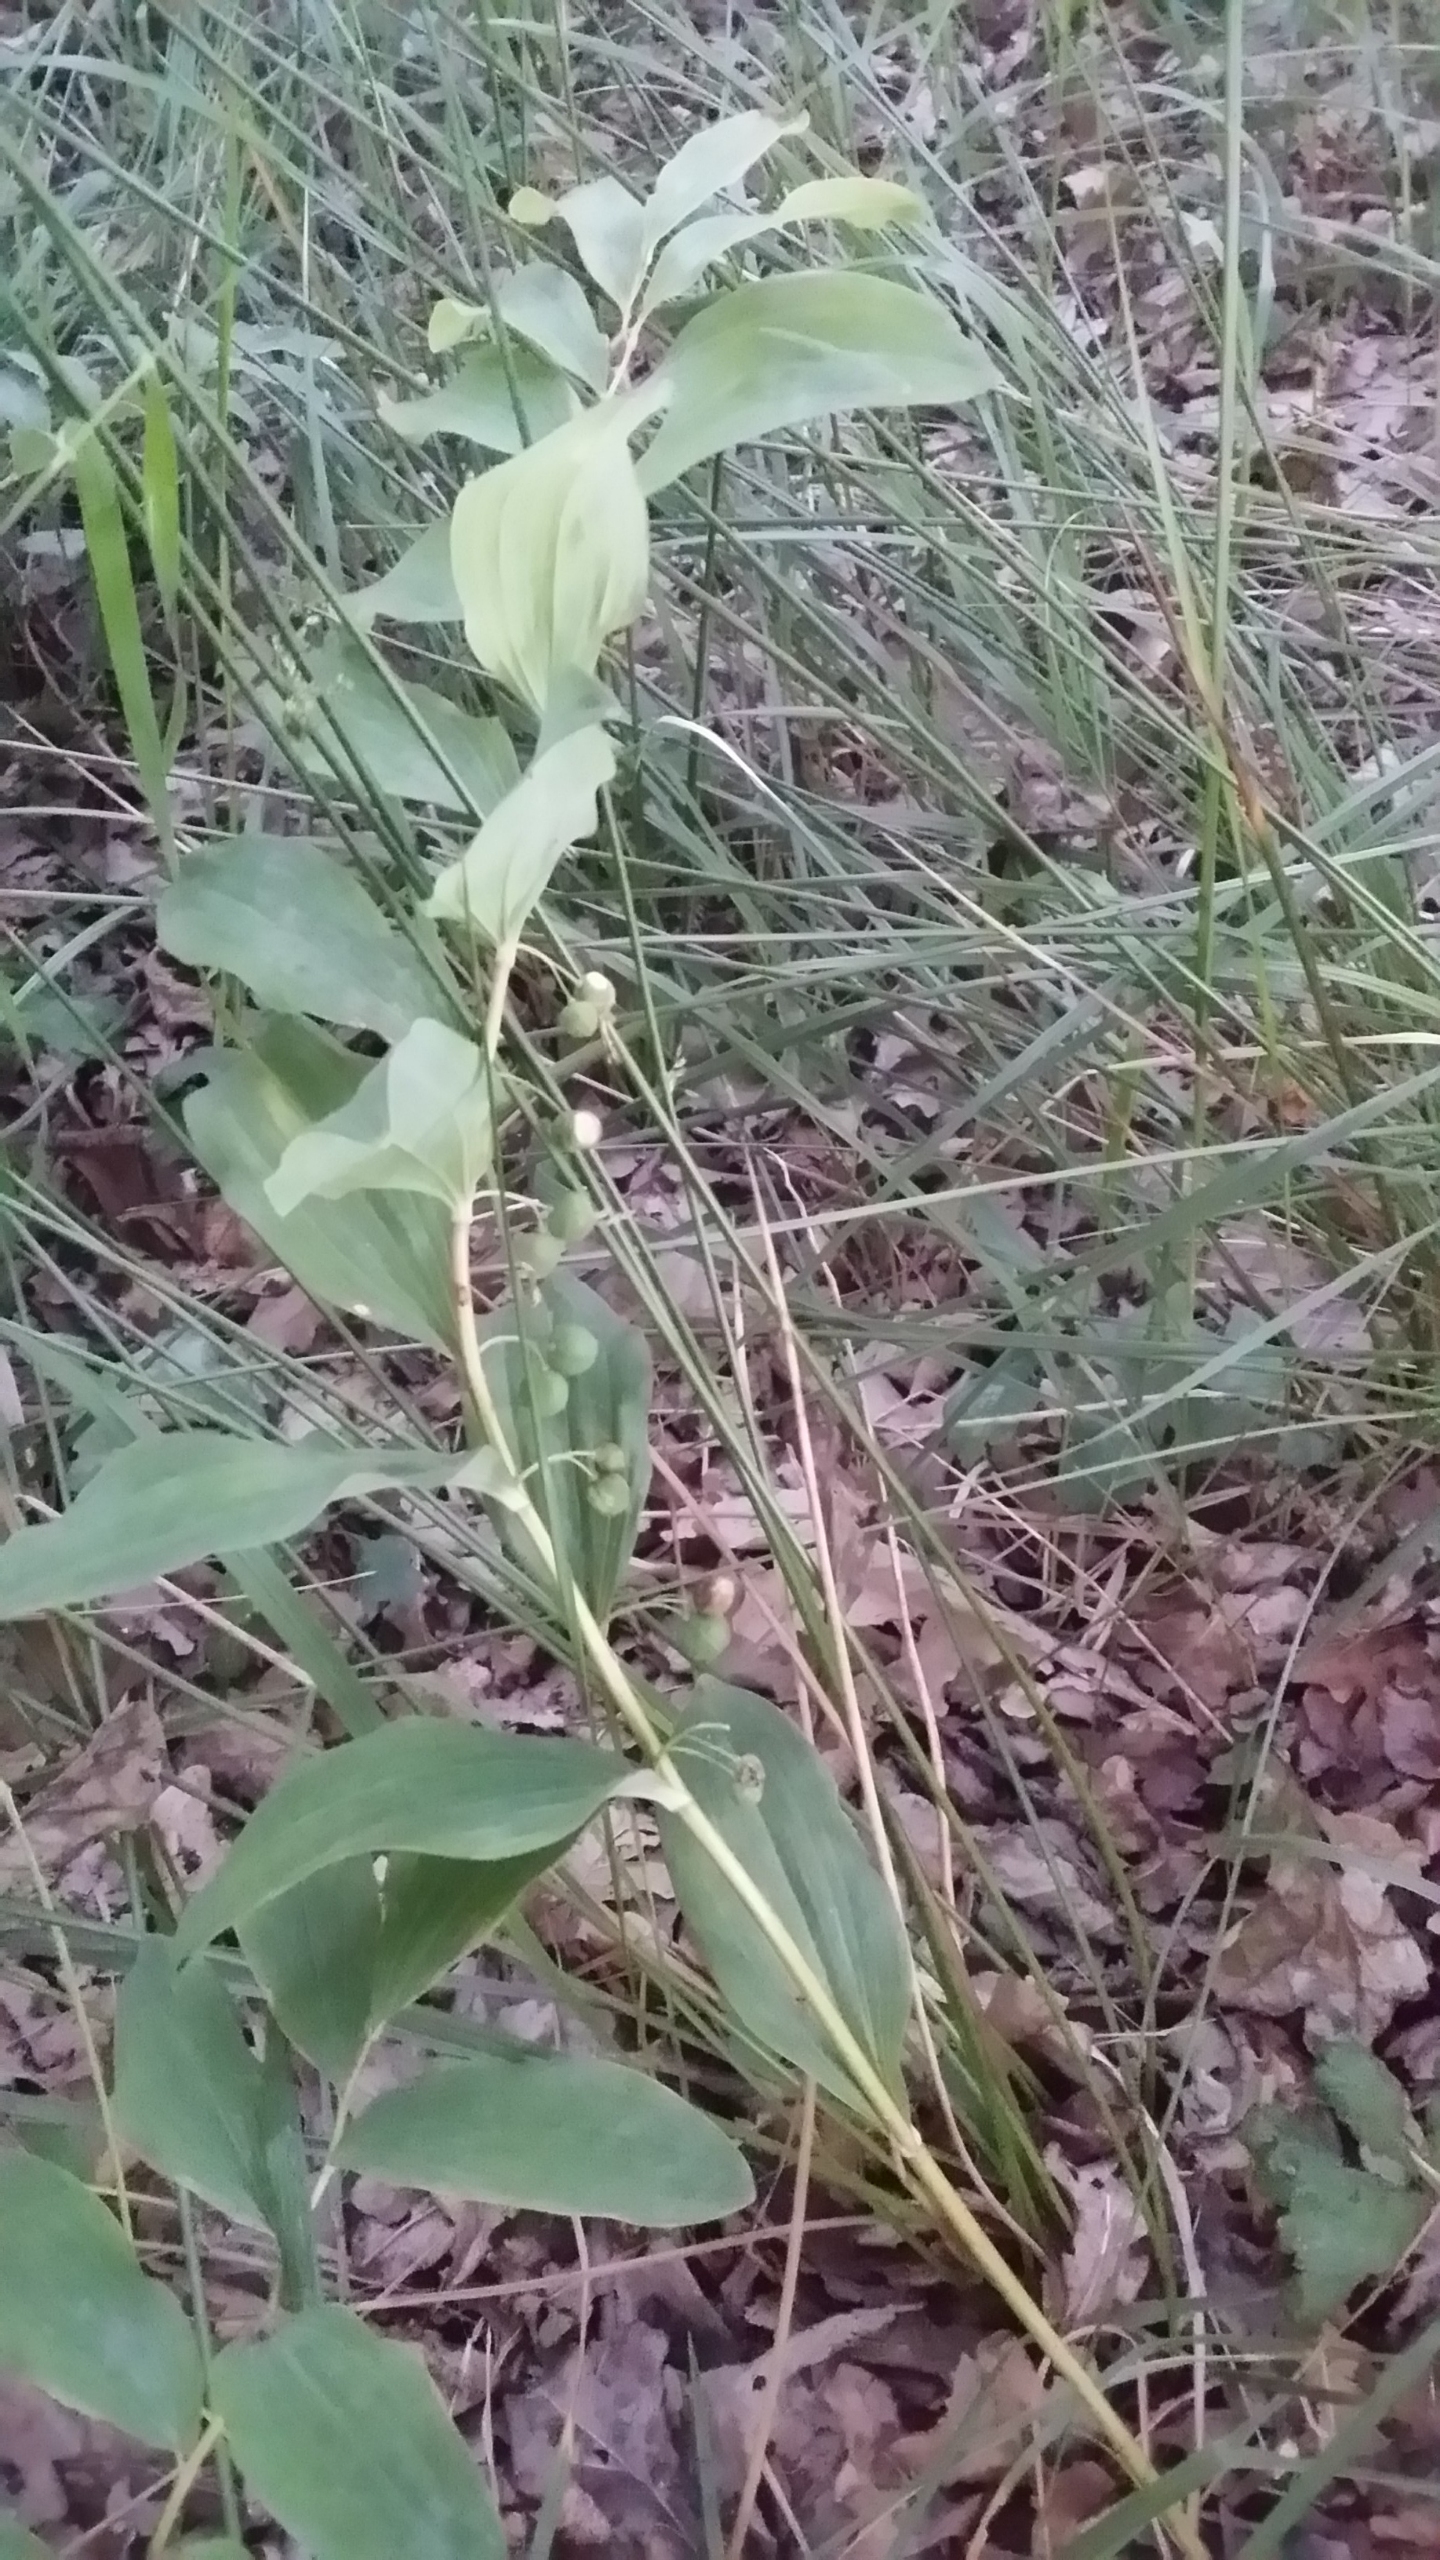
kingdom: Plantae
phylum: Tracheophyta
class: Liliopsida
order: Asparagales
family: Asparagaceae
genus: Polygonatum
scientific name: Polygonatum multiflorum
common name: Stor konval
